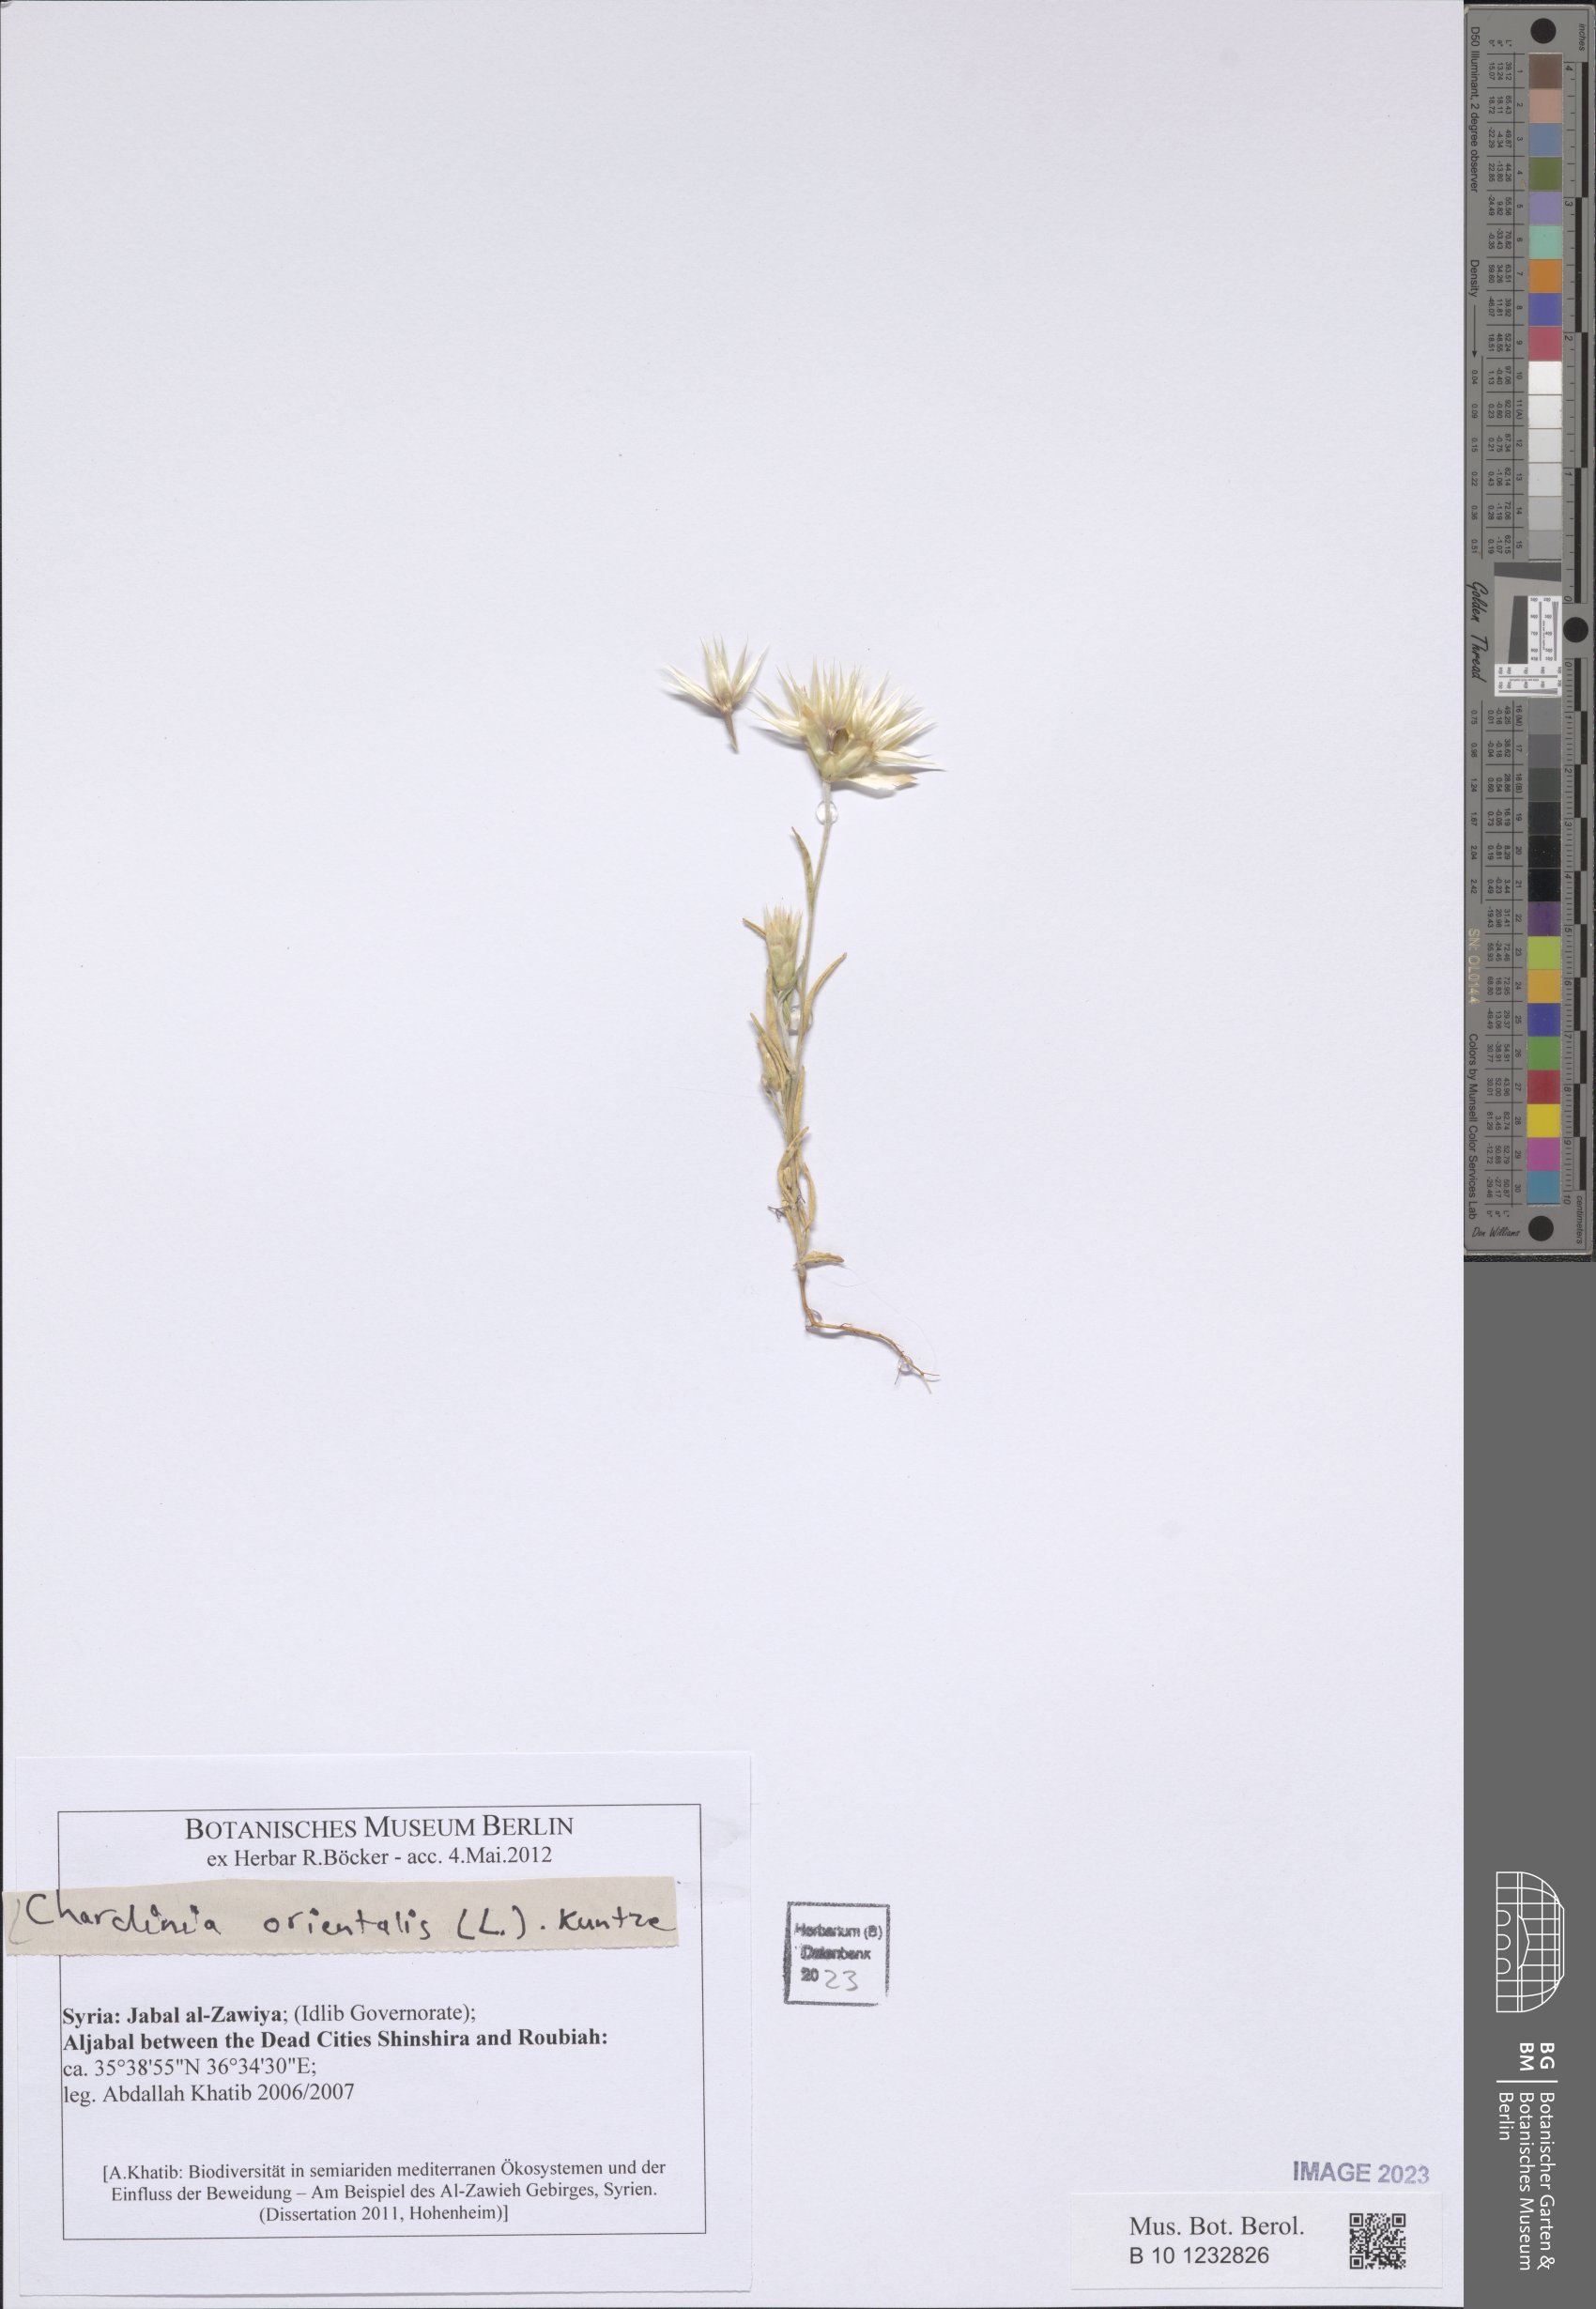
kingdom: Plantae
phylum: Tracheophyta
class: Magnoliopsida
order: Asterales
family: Asteraceae
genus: Chardinia
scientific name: Chardinia orientalis
